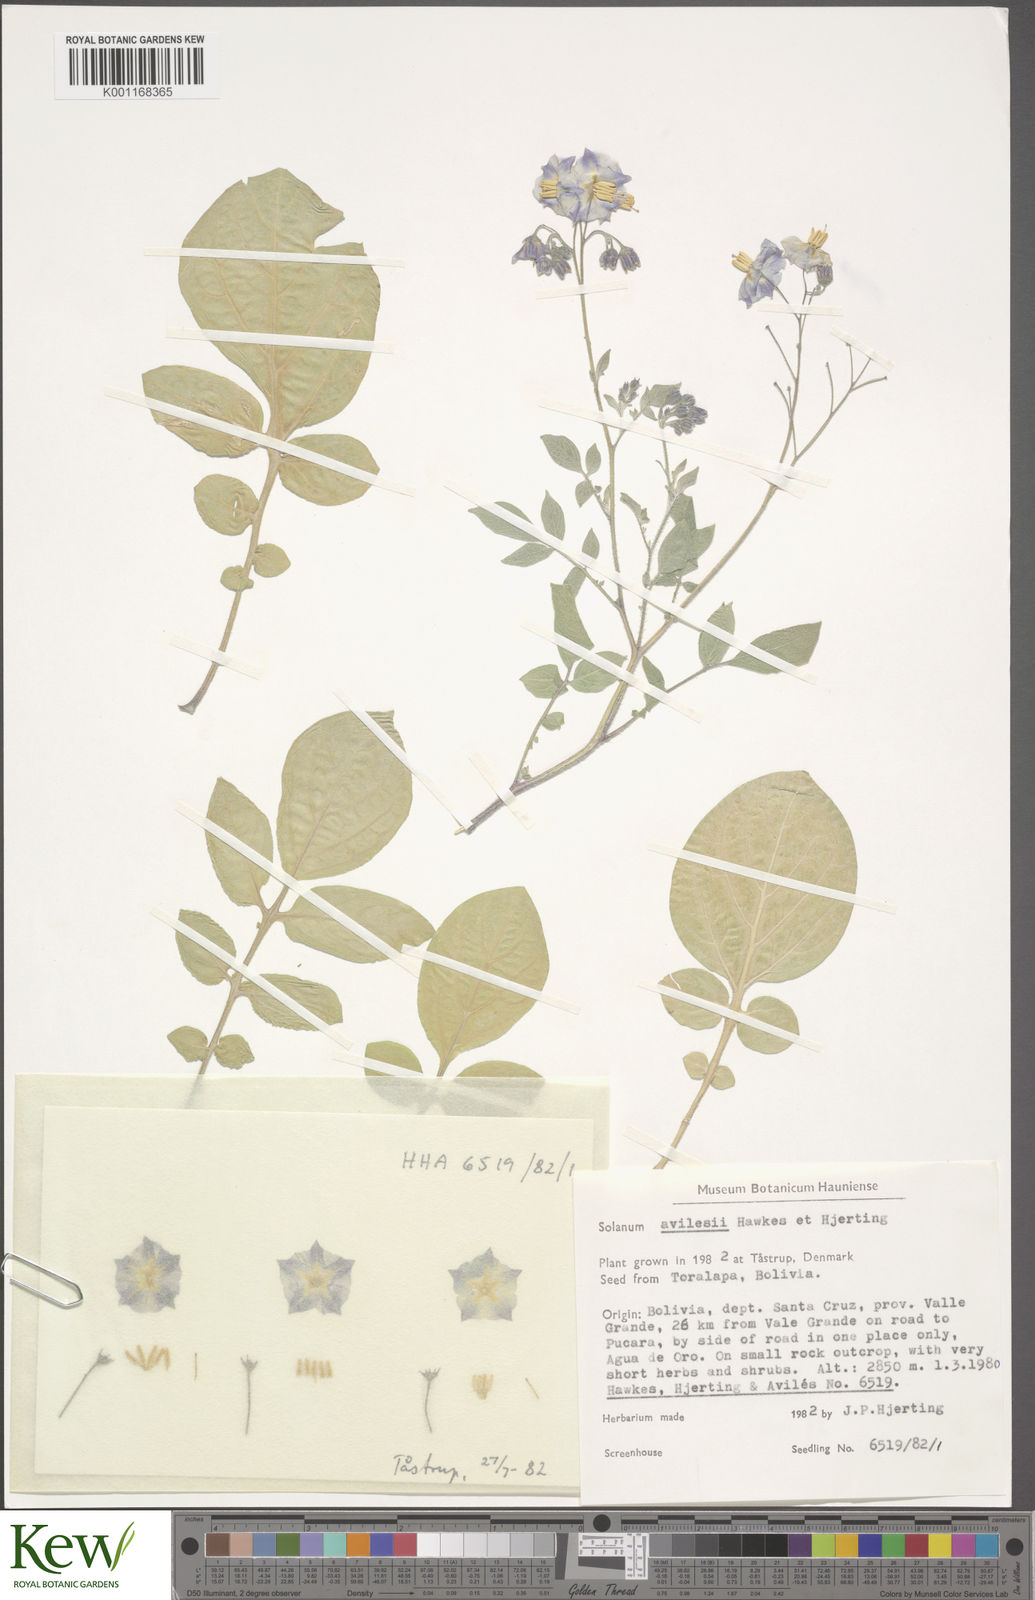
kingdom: Plantae
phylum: Tracheophyta
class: Magnoliopsida
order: Solanales
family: Solanaceae
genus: Solanum
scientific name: Solanum brevicaule
